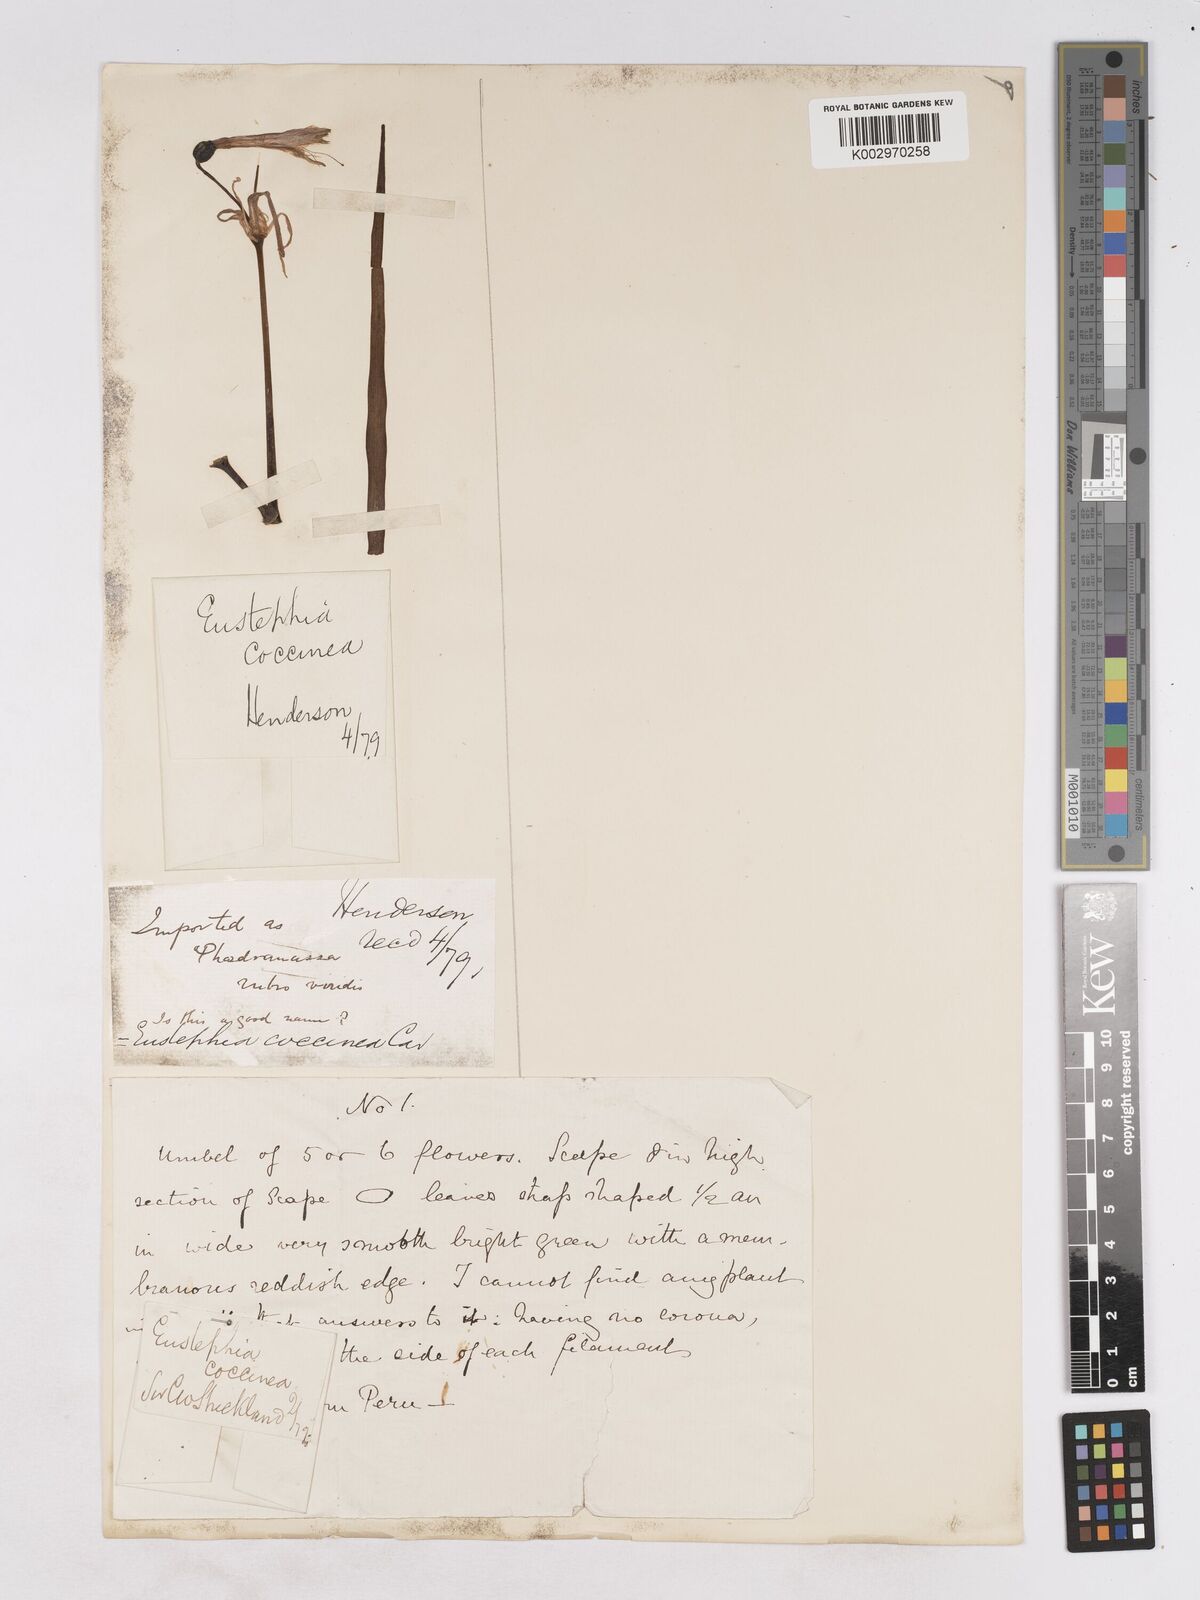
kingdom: Plantae
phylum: Tracheophyta
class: Liliopsida
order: Asparagales
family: Amaryllidaceae
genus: Eustephia
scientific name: Eustephia coccinea
